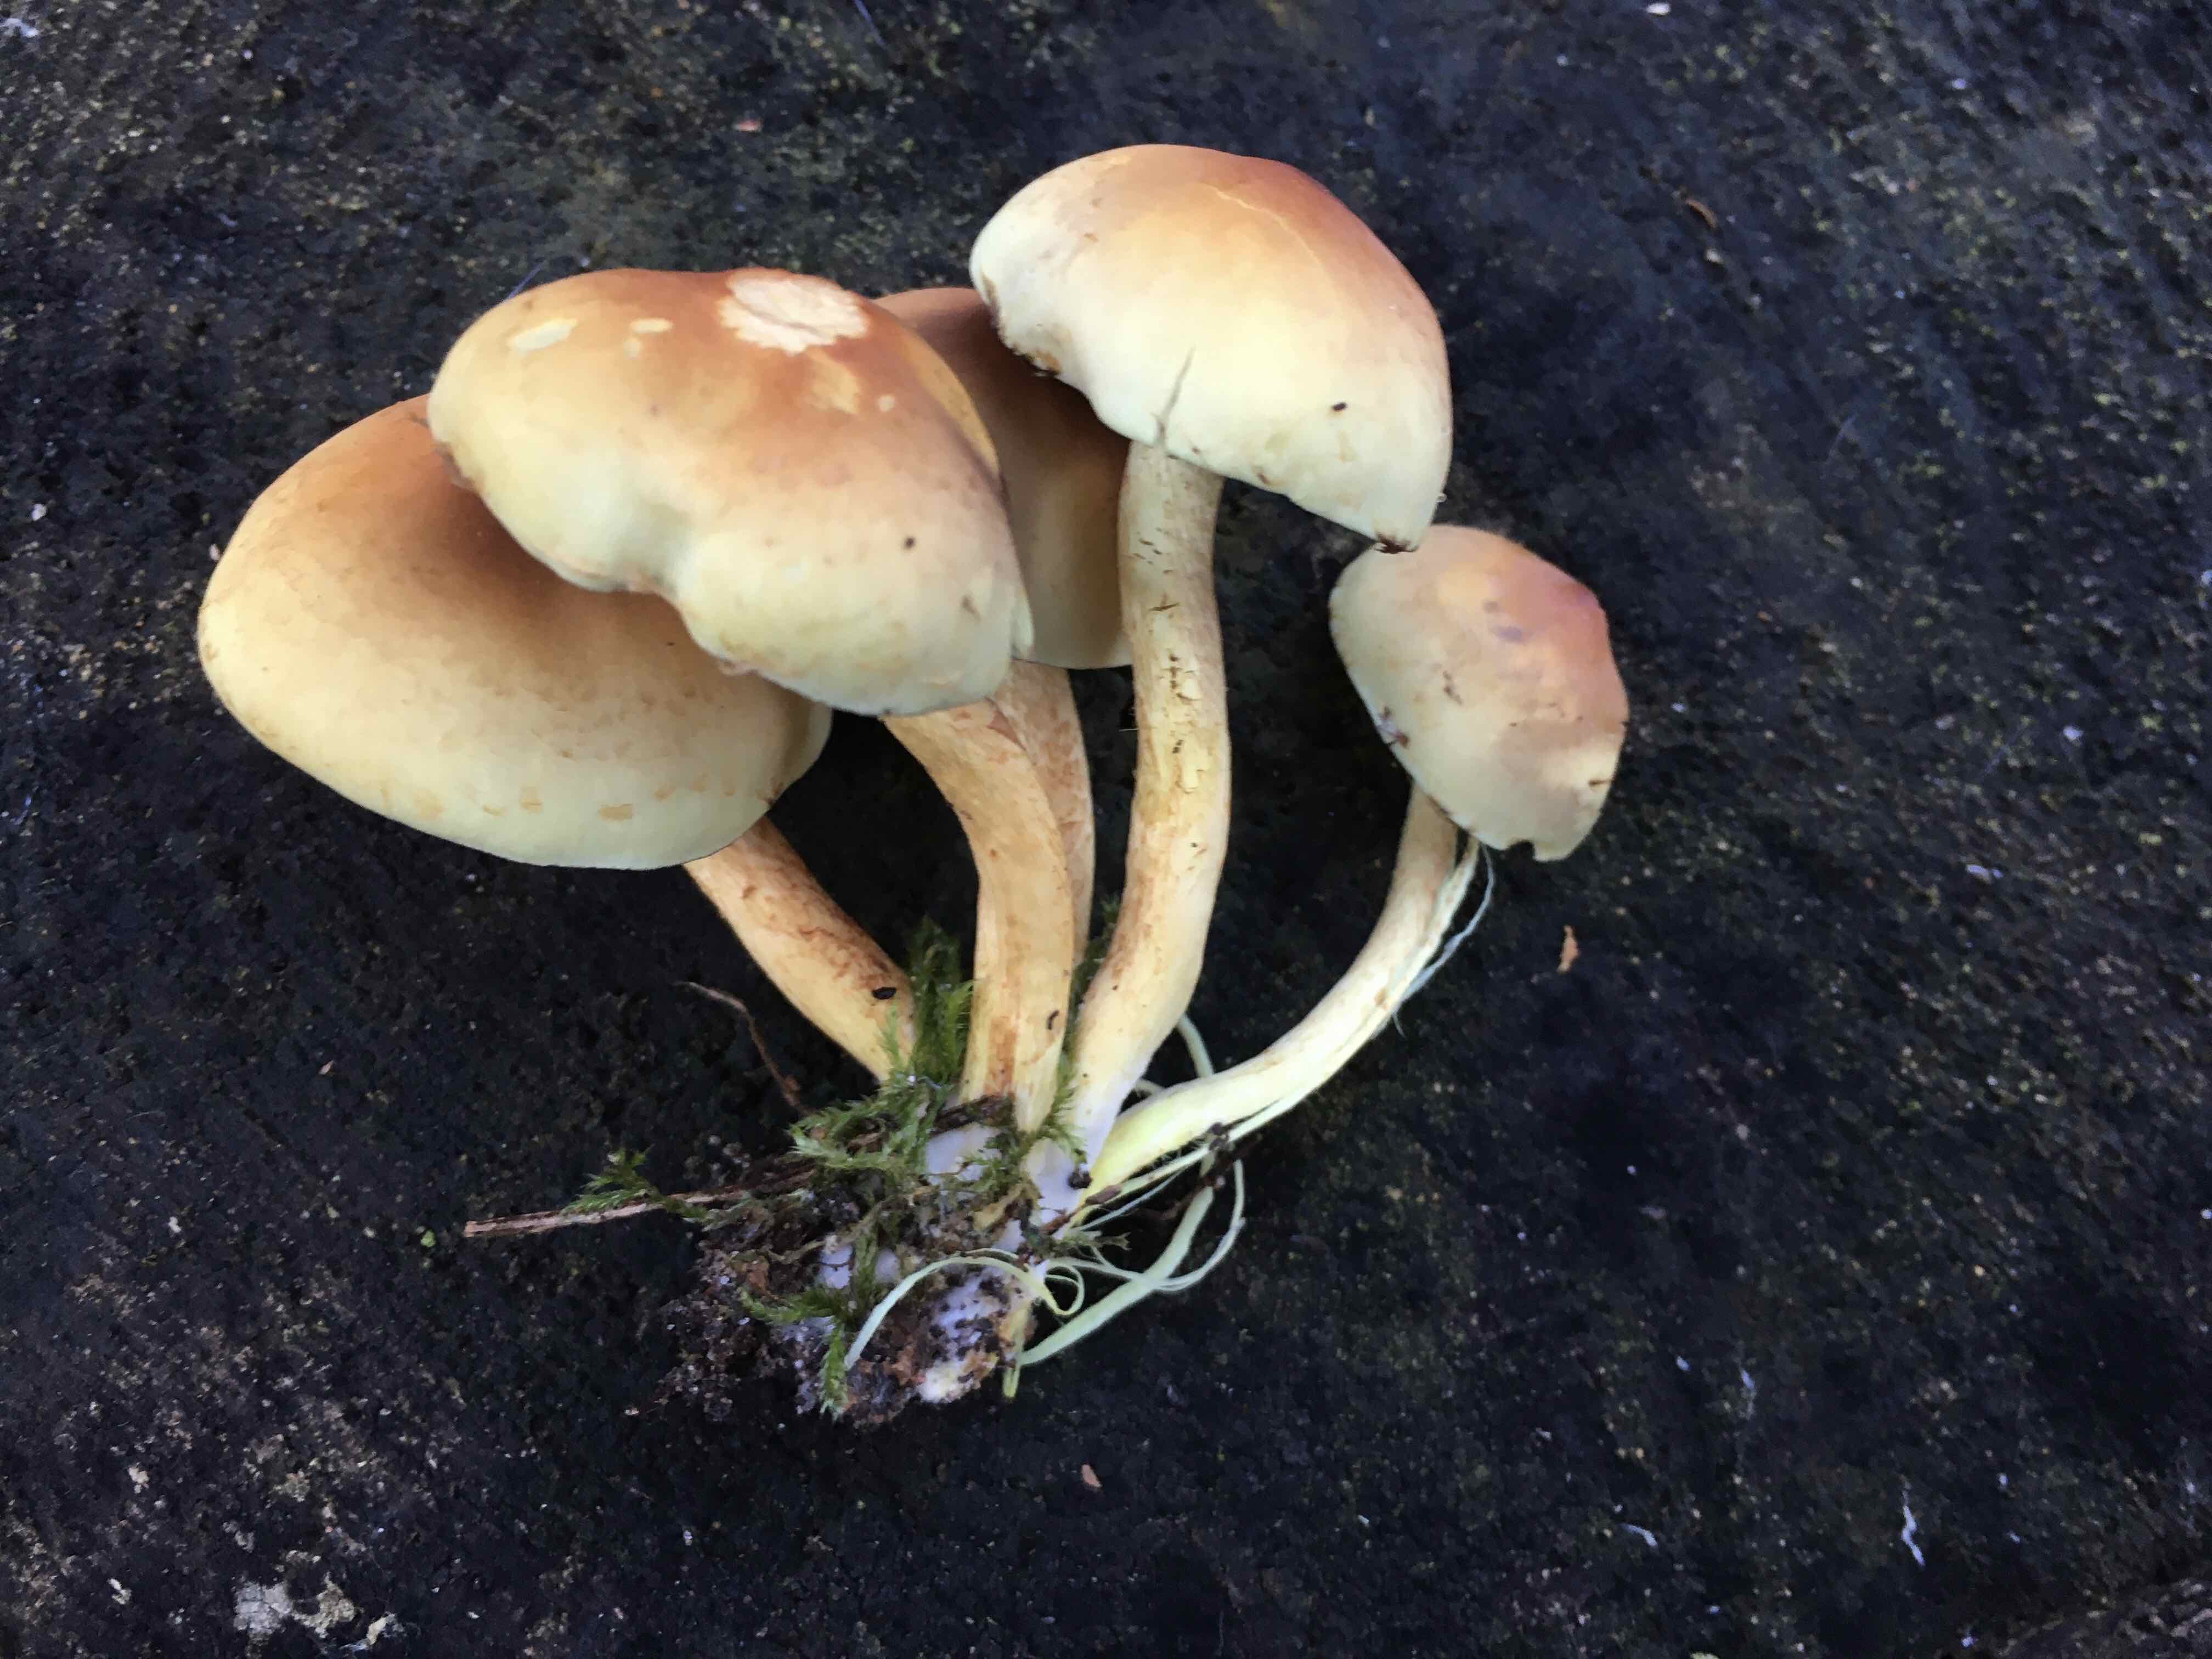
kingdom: Fungi
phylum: Basidiomycota
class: Agaricomycetes
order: Agaricales
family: Strophariaceae
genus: Hypholoma
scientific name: Hypholoma fasciculare
